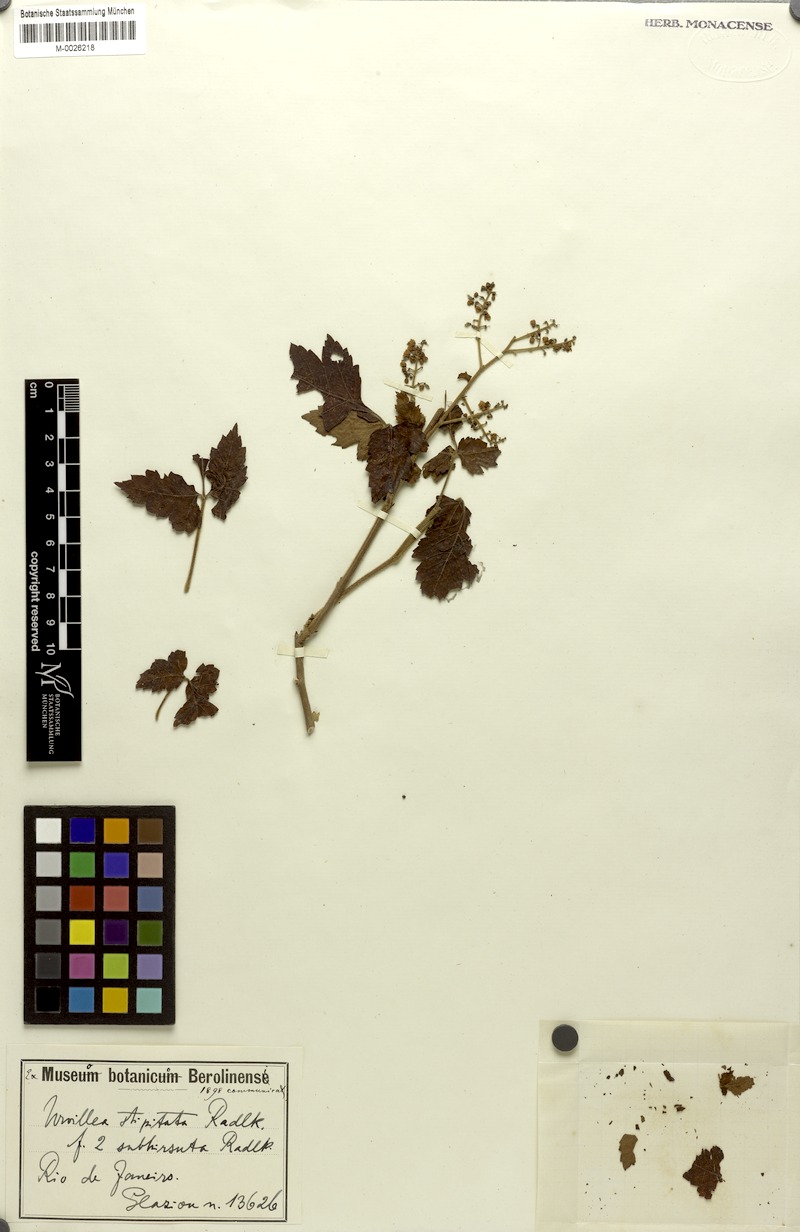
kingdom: Plantae
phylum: Tracheophyta
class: Magnoliopsida
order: Sapindales
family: Sapindaceae
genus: Urvillea
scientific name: Urvillea stipitata
